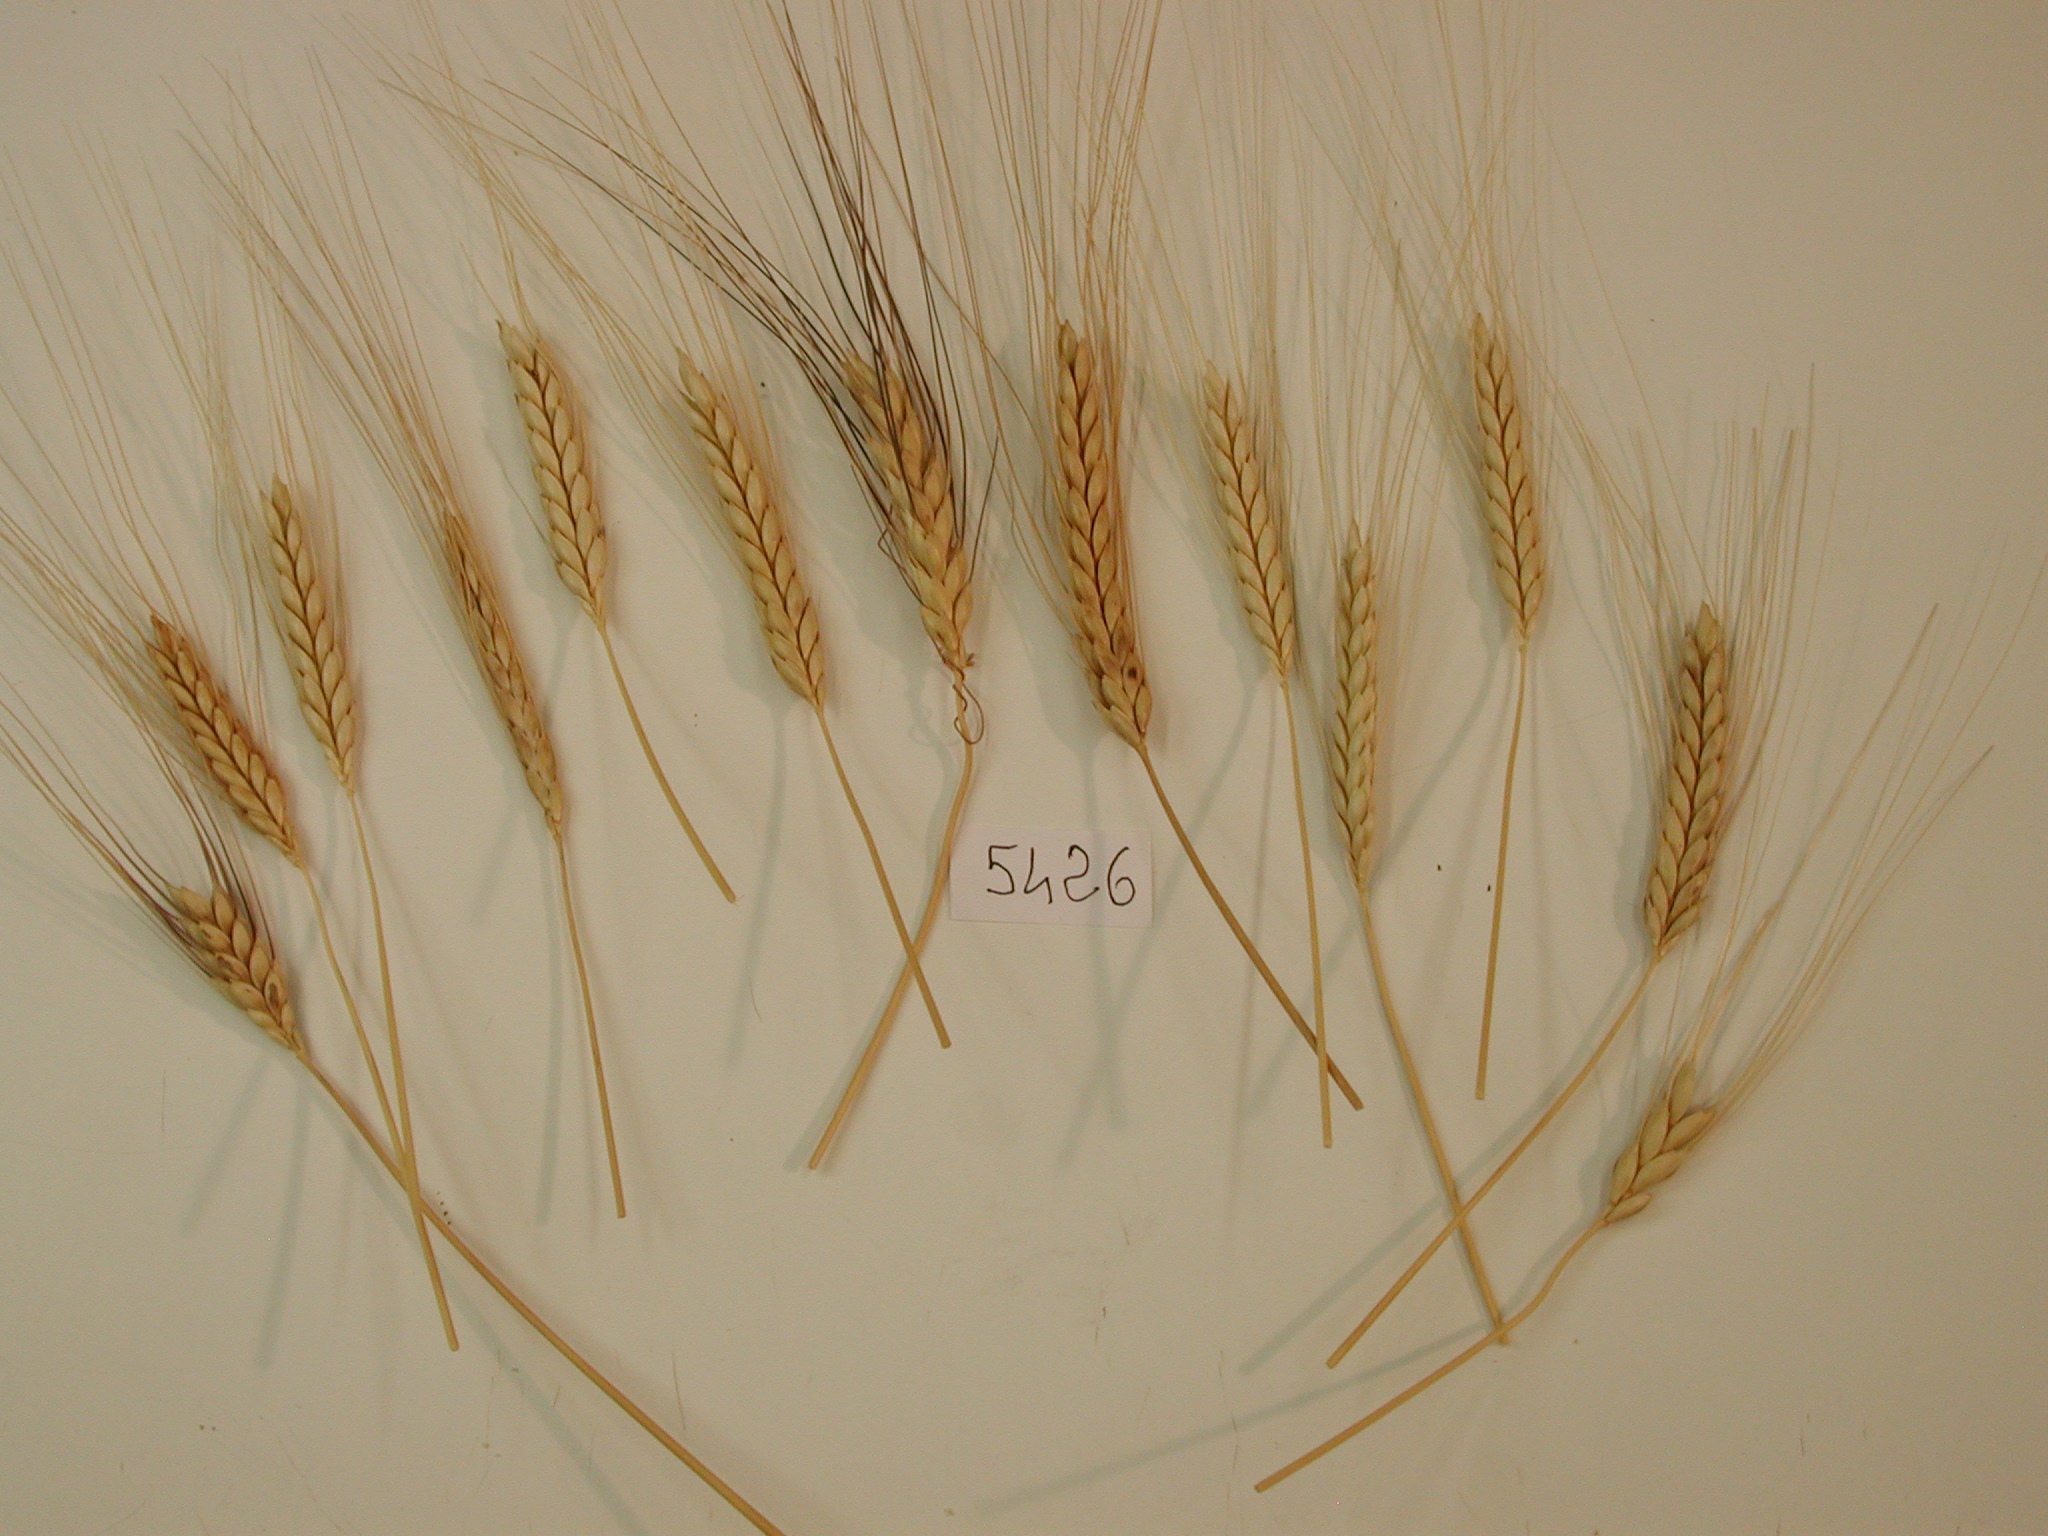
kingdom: Plantae
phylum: Tracheophyta
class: Liliopsida
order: Poales
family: Poaceae
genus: Triticum
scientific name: Triticum turgidum
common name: Emmer Wheat
